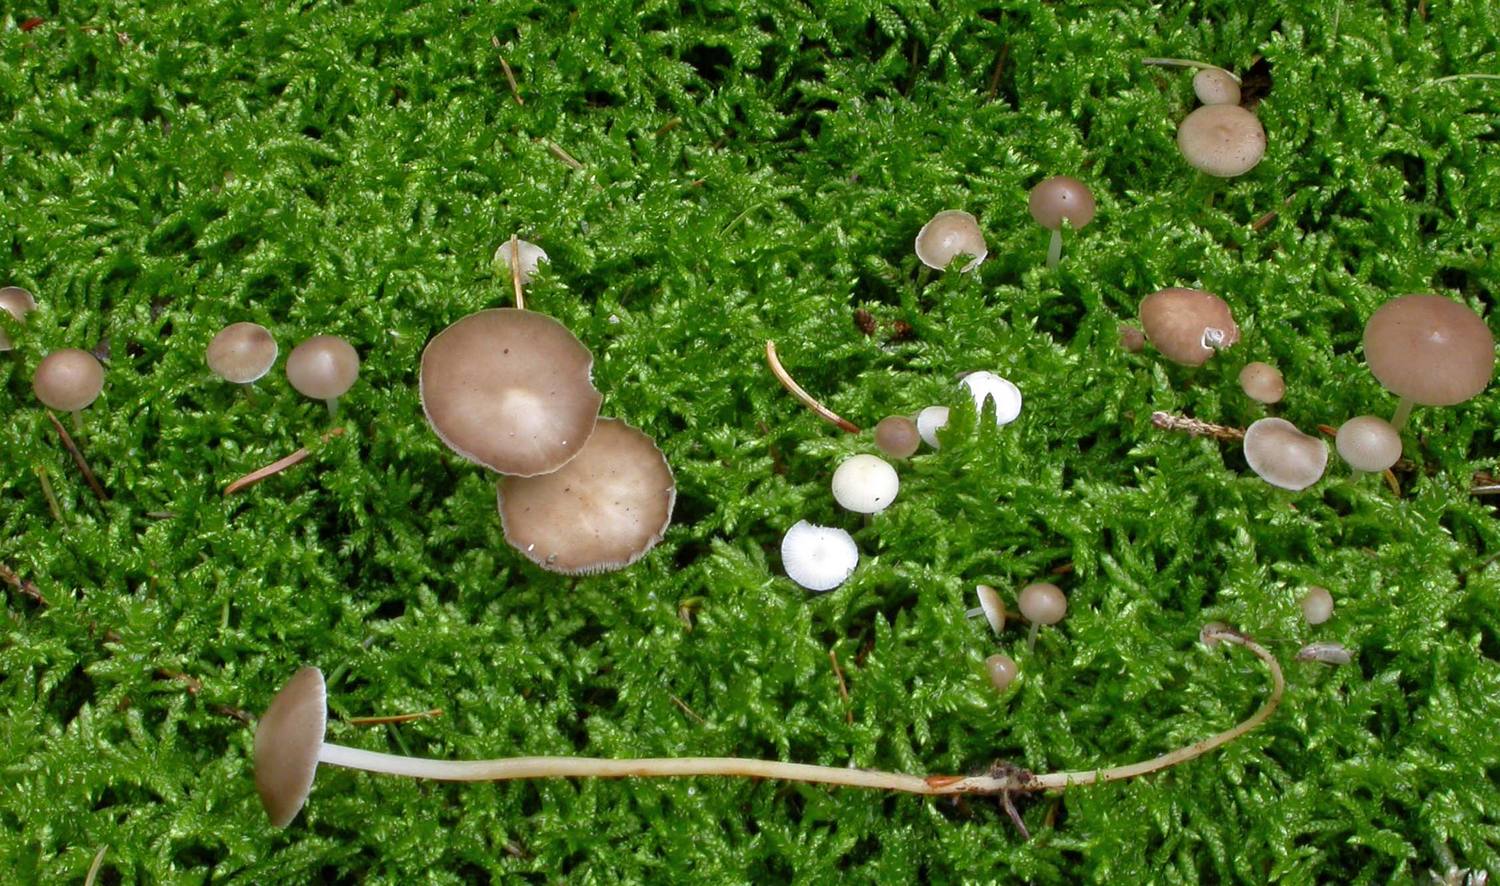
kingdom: Fungi
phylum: Basidiomycota
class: Agaricomycetes
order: Agaricales
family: Physalacriaceae
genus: Strobilurus
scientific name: Strobilurus esculentus
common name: gran-koglehat
